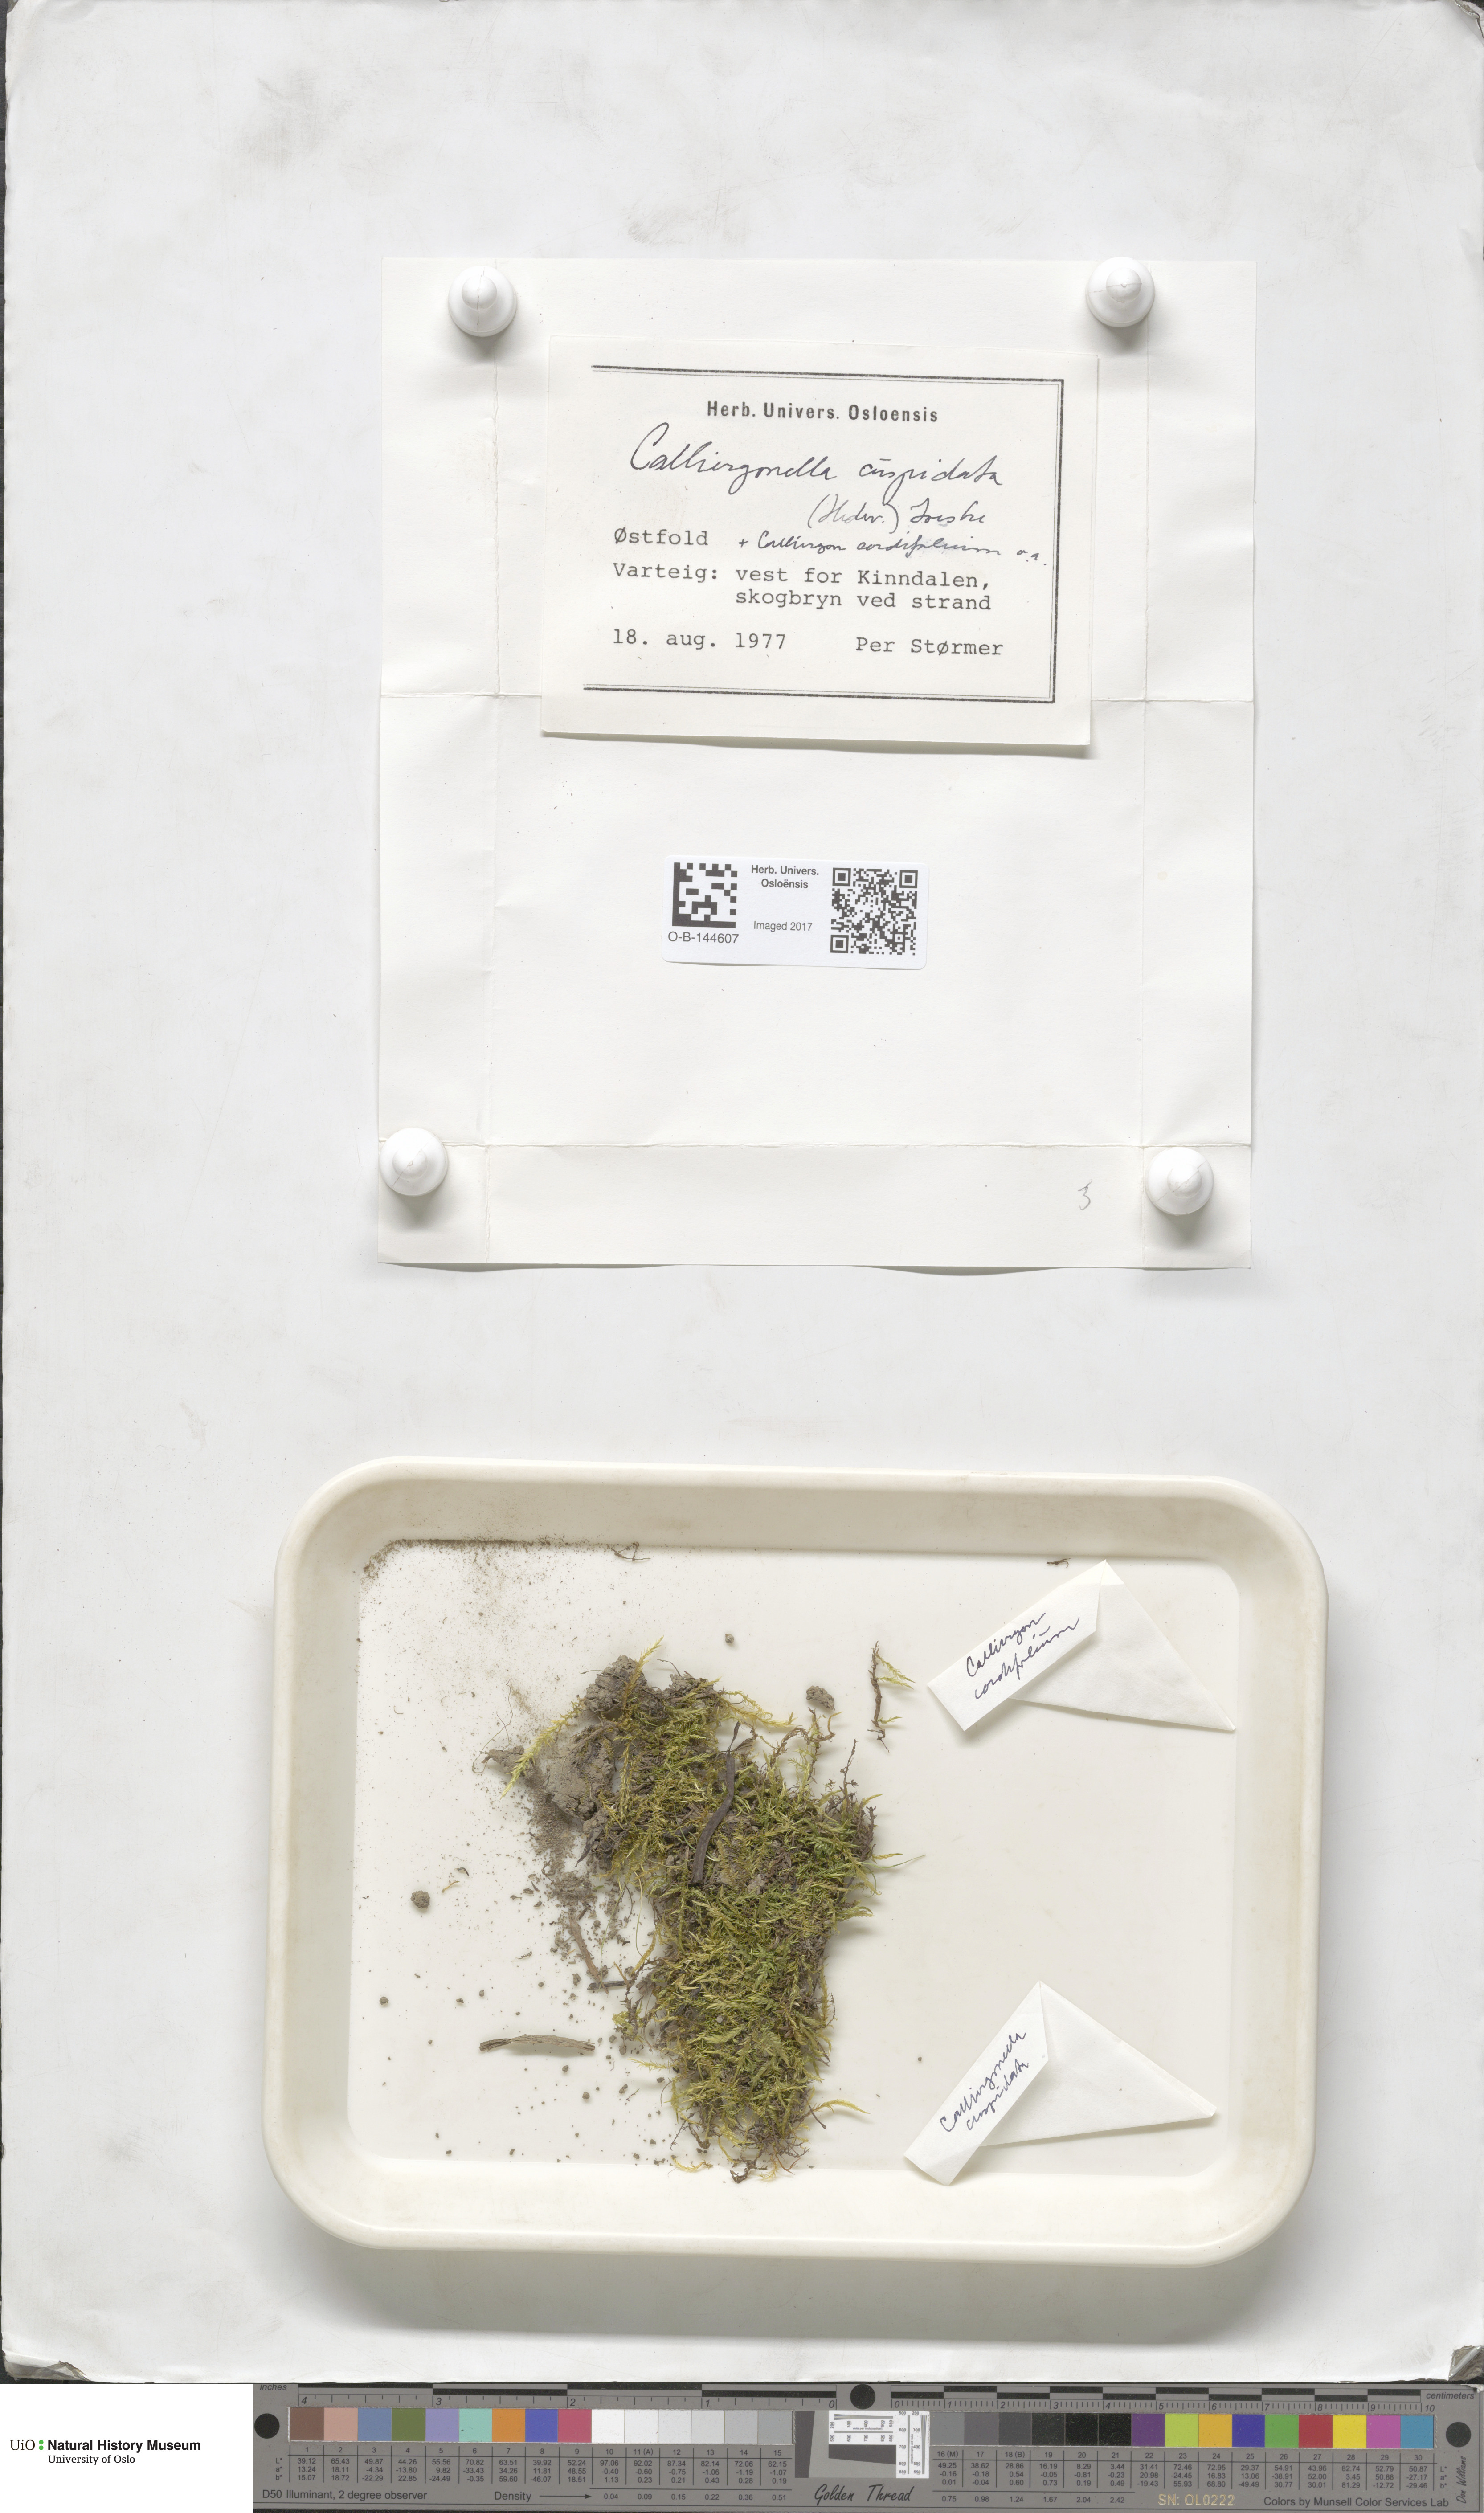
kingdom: Plantae
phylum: Bryophyta
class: Bryopsida
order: Hypnales
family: Pylaisiaceae
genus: Calliergonella
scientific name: Calliergonella cuspidata
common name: Common large wetland moss
